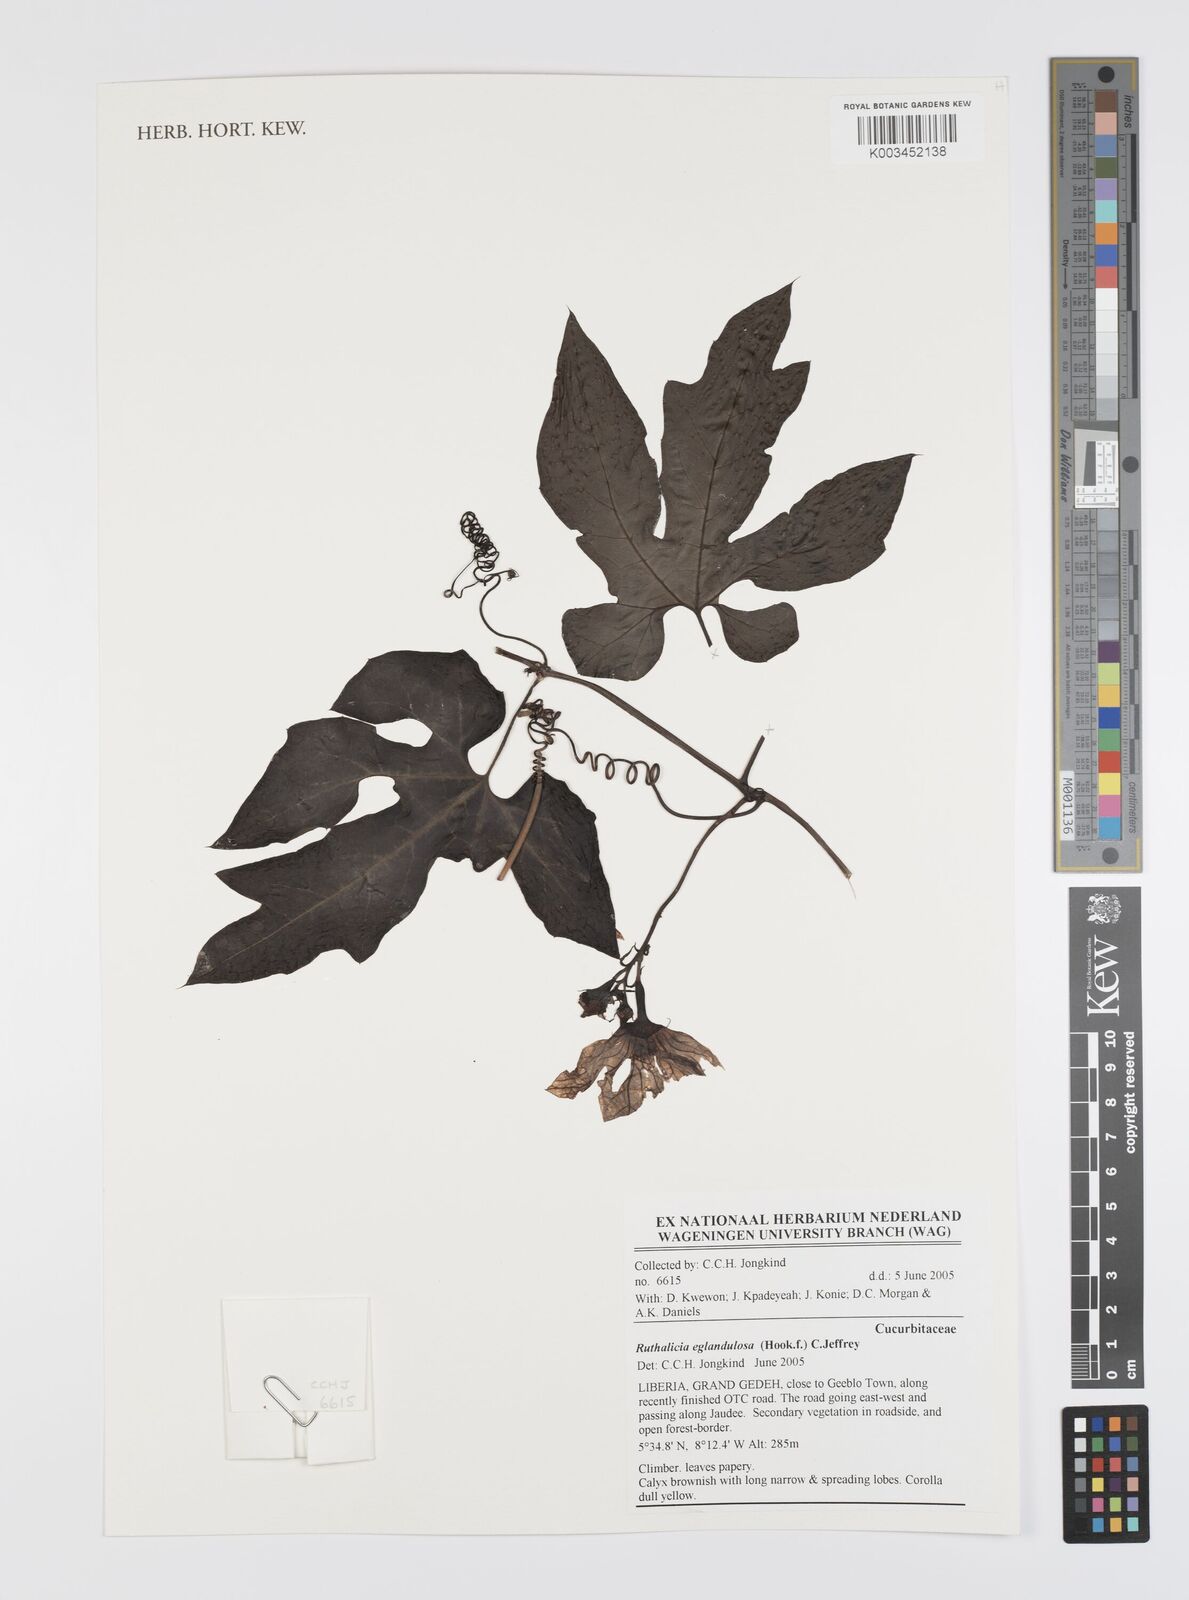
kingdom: Plantae
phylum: Tracheophyta
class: Magnoliopsida
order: Cucurbitales
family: Cucurbitaceae
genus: Ruthalicia
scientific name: Ruthalicia eglandulosa
